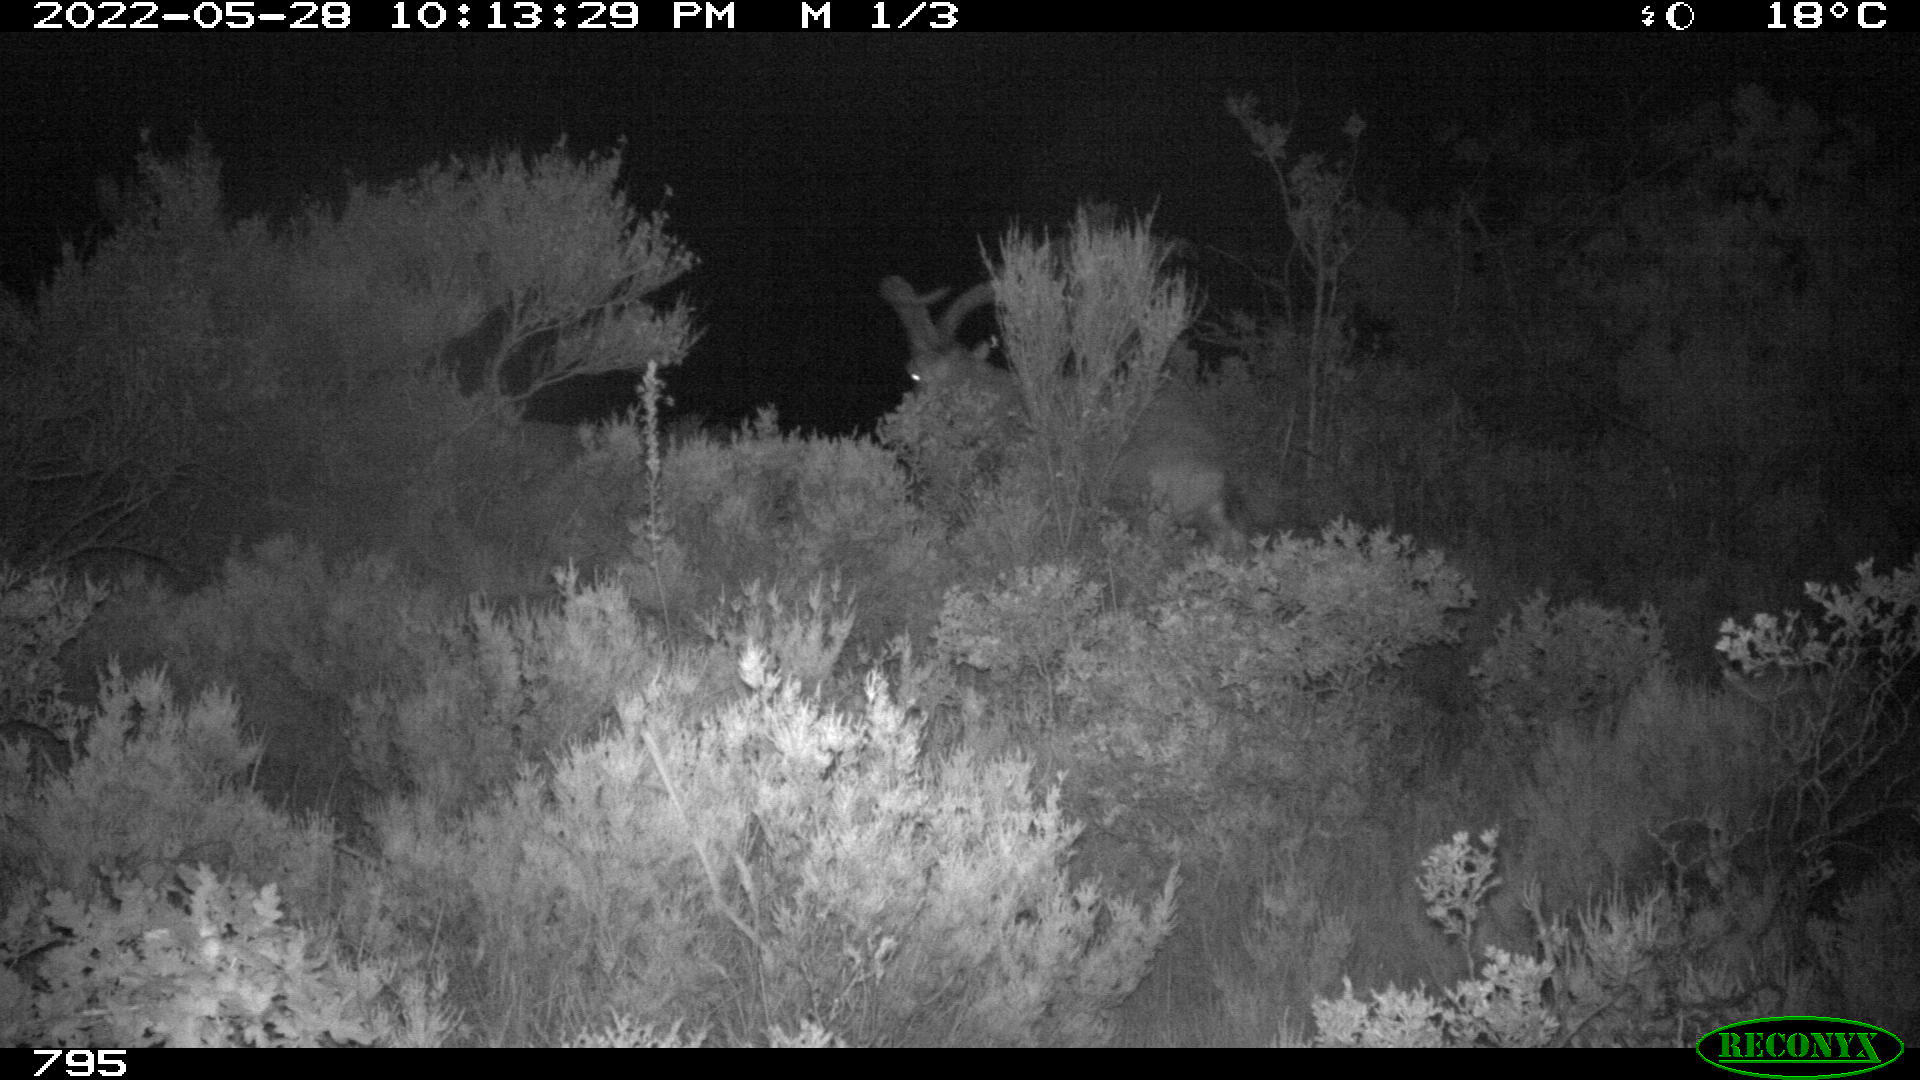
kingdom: Animalia
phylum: Chordata
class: Mammalia
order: Artiodactyla
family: Bovidae
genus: Capra
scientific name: Capra pyrenaica
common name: Spanish ibex
